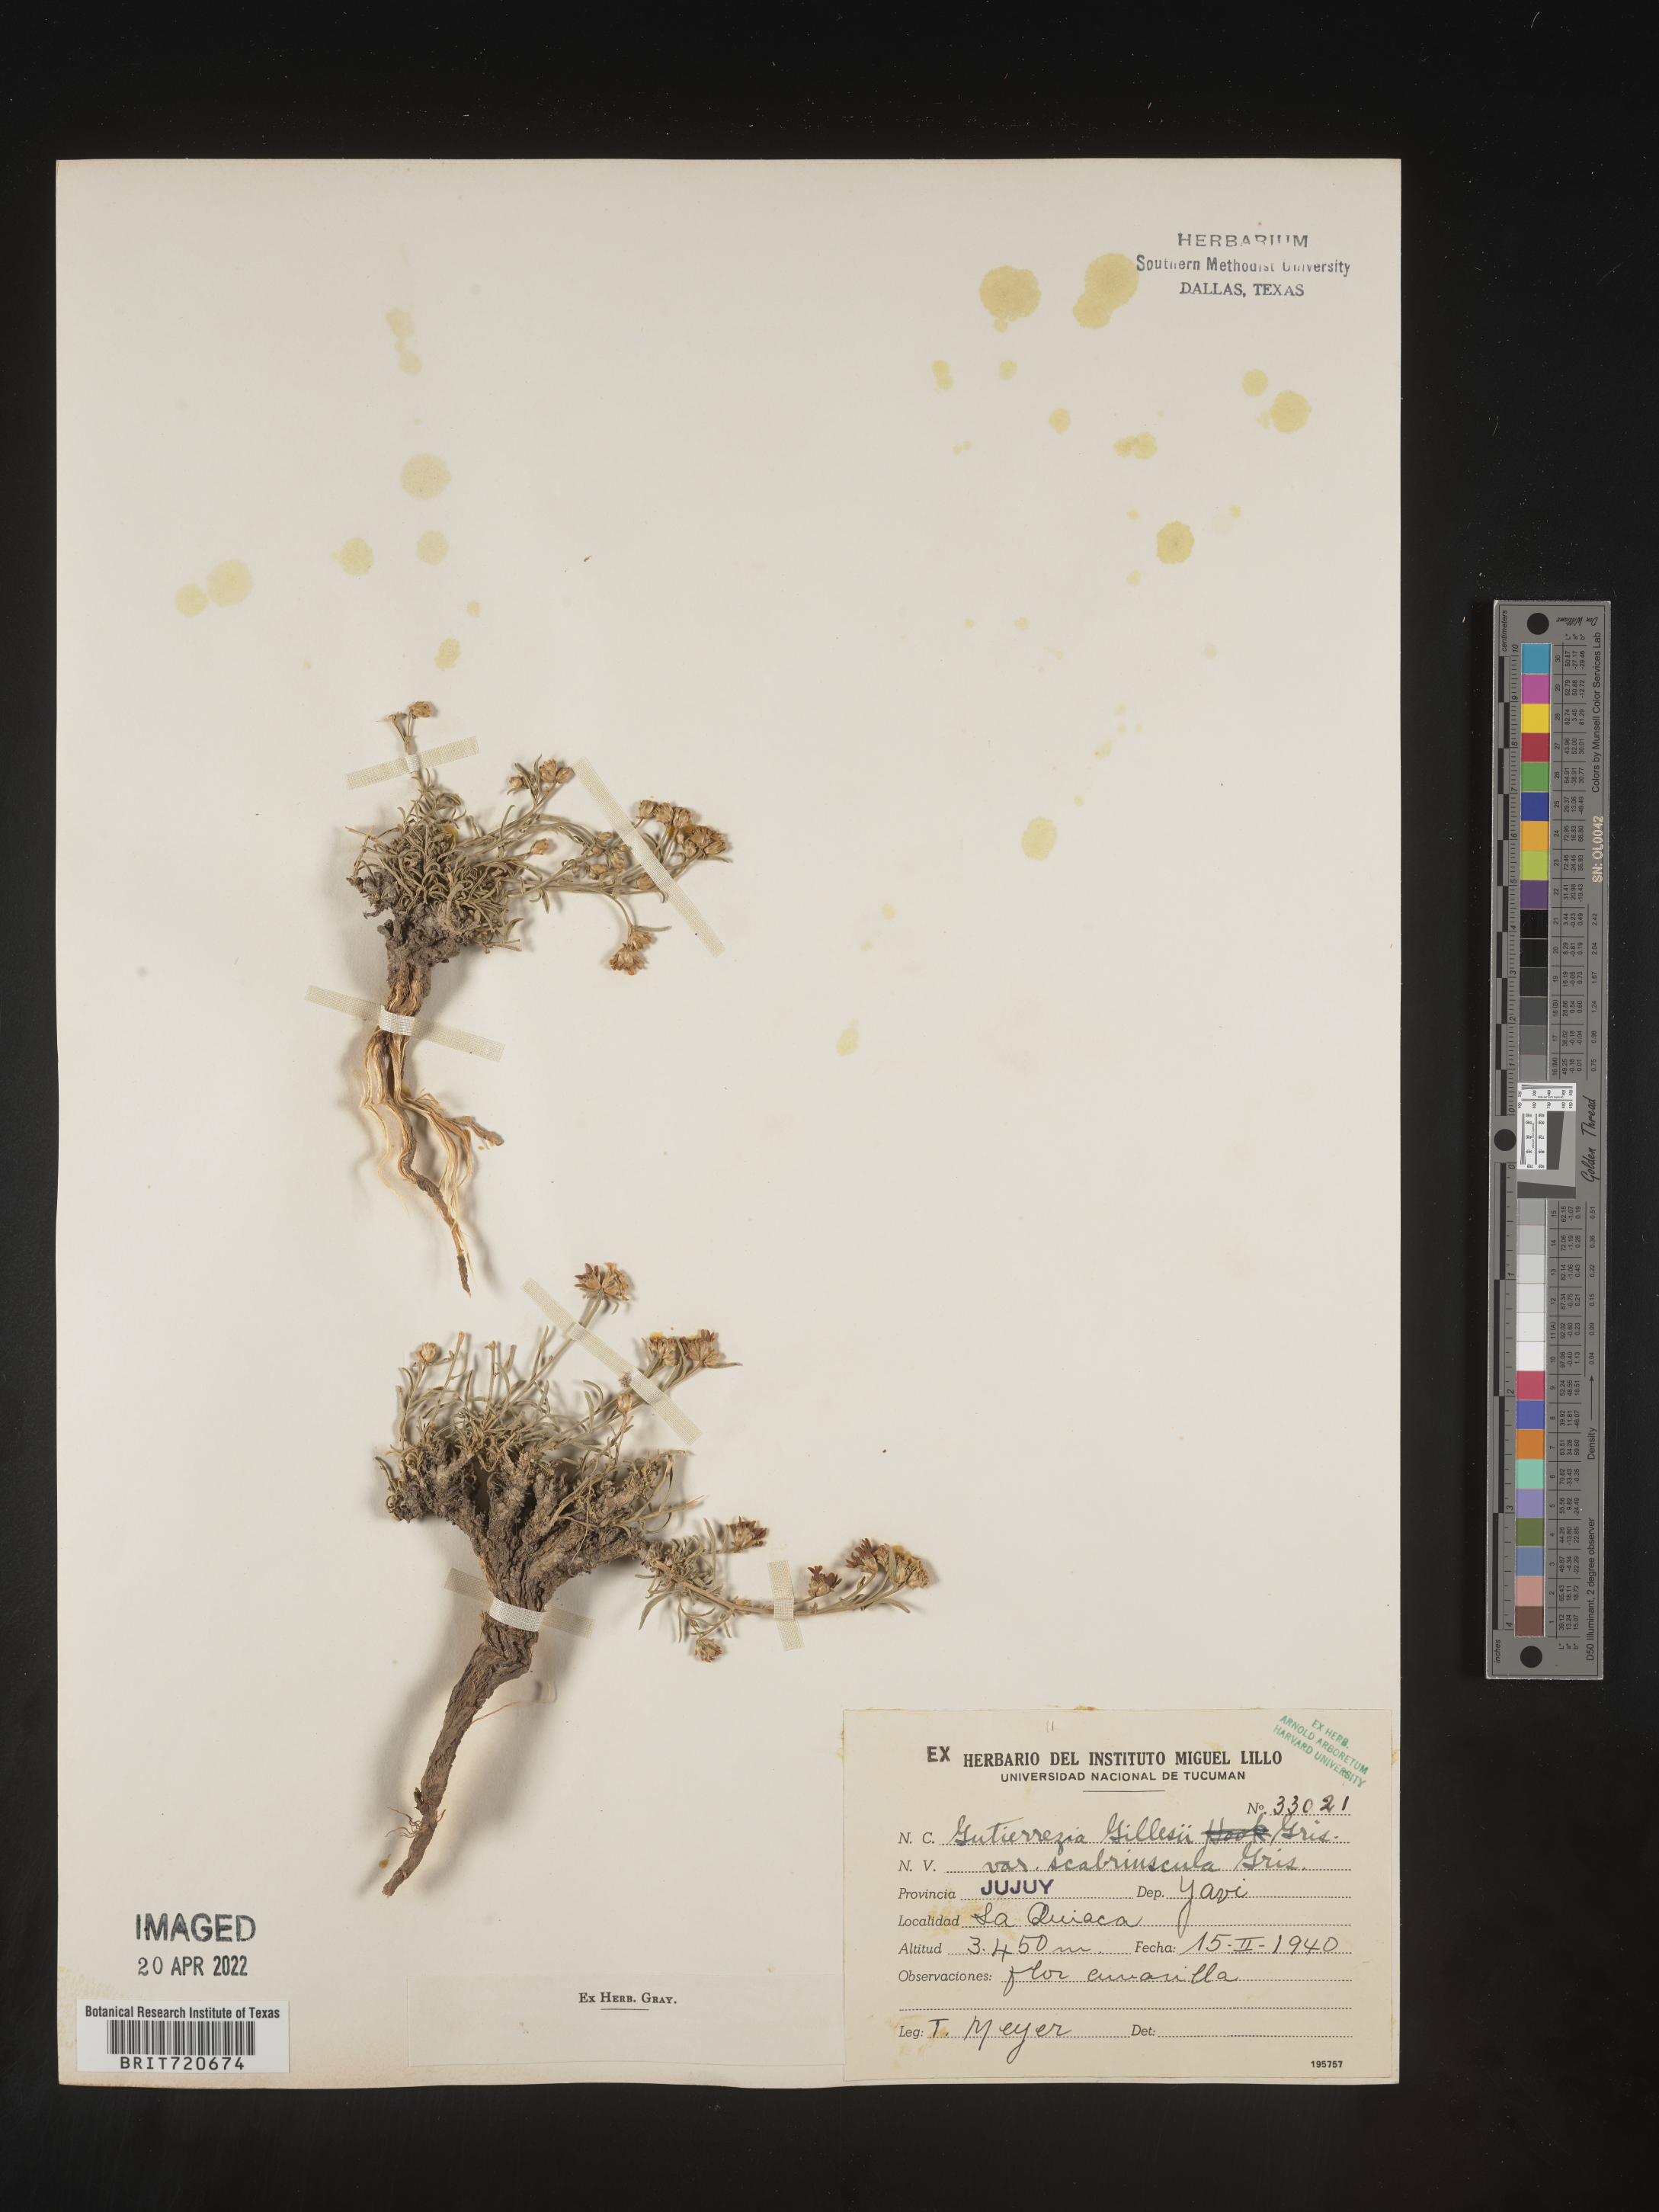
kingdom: Plantae
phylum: Tracheophyta
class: Magnoliopsida
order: Asterales
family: Asteraceae
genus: Gutierrezia
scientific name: Gutierrezia
